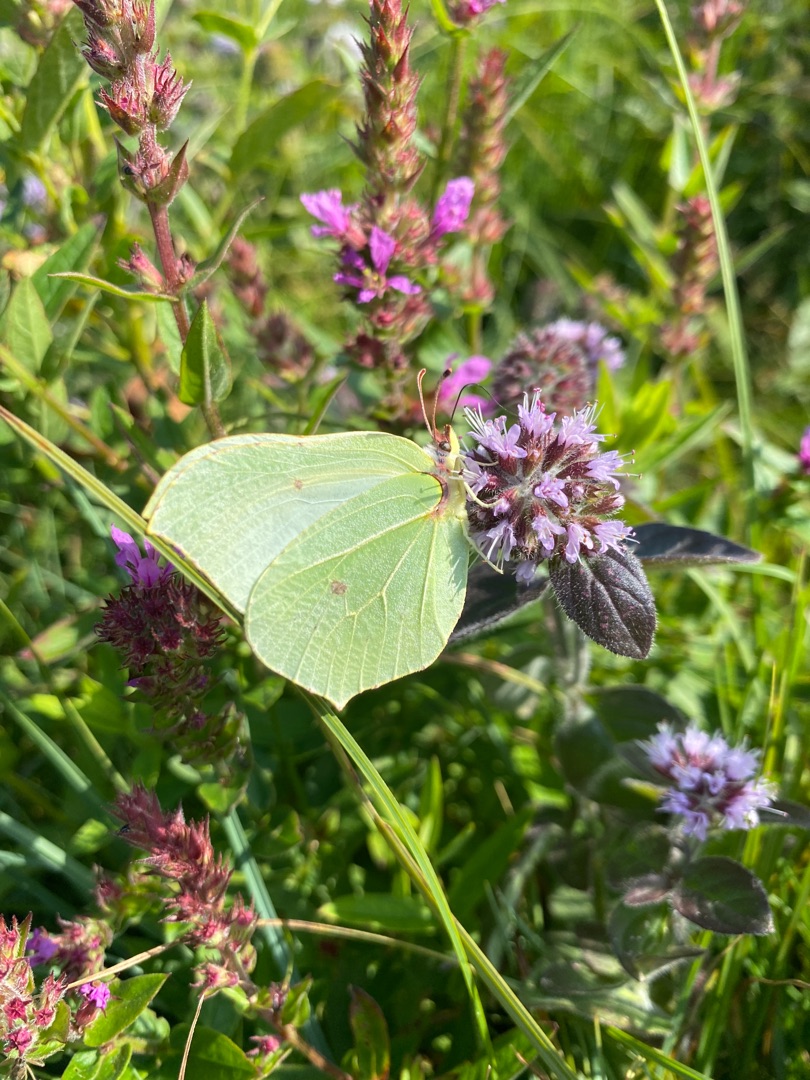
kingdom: Animalia
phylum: Arthropoda
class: Insecta
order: Lepidoptera
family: Pieridae
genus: Gonepteryx
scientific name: Gonepteryx rhamni
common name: Citronsommerfugl
